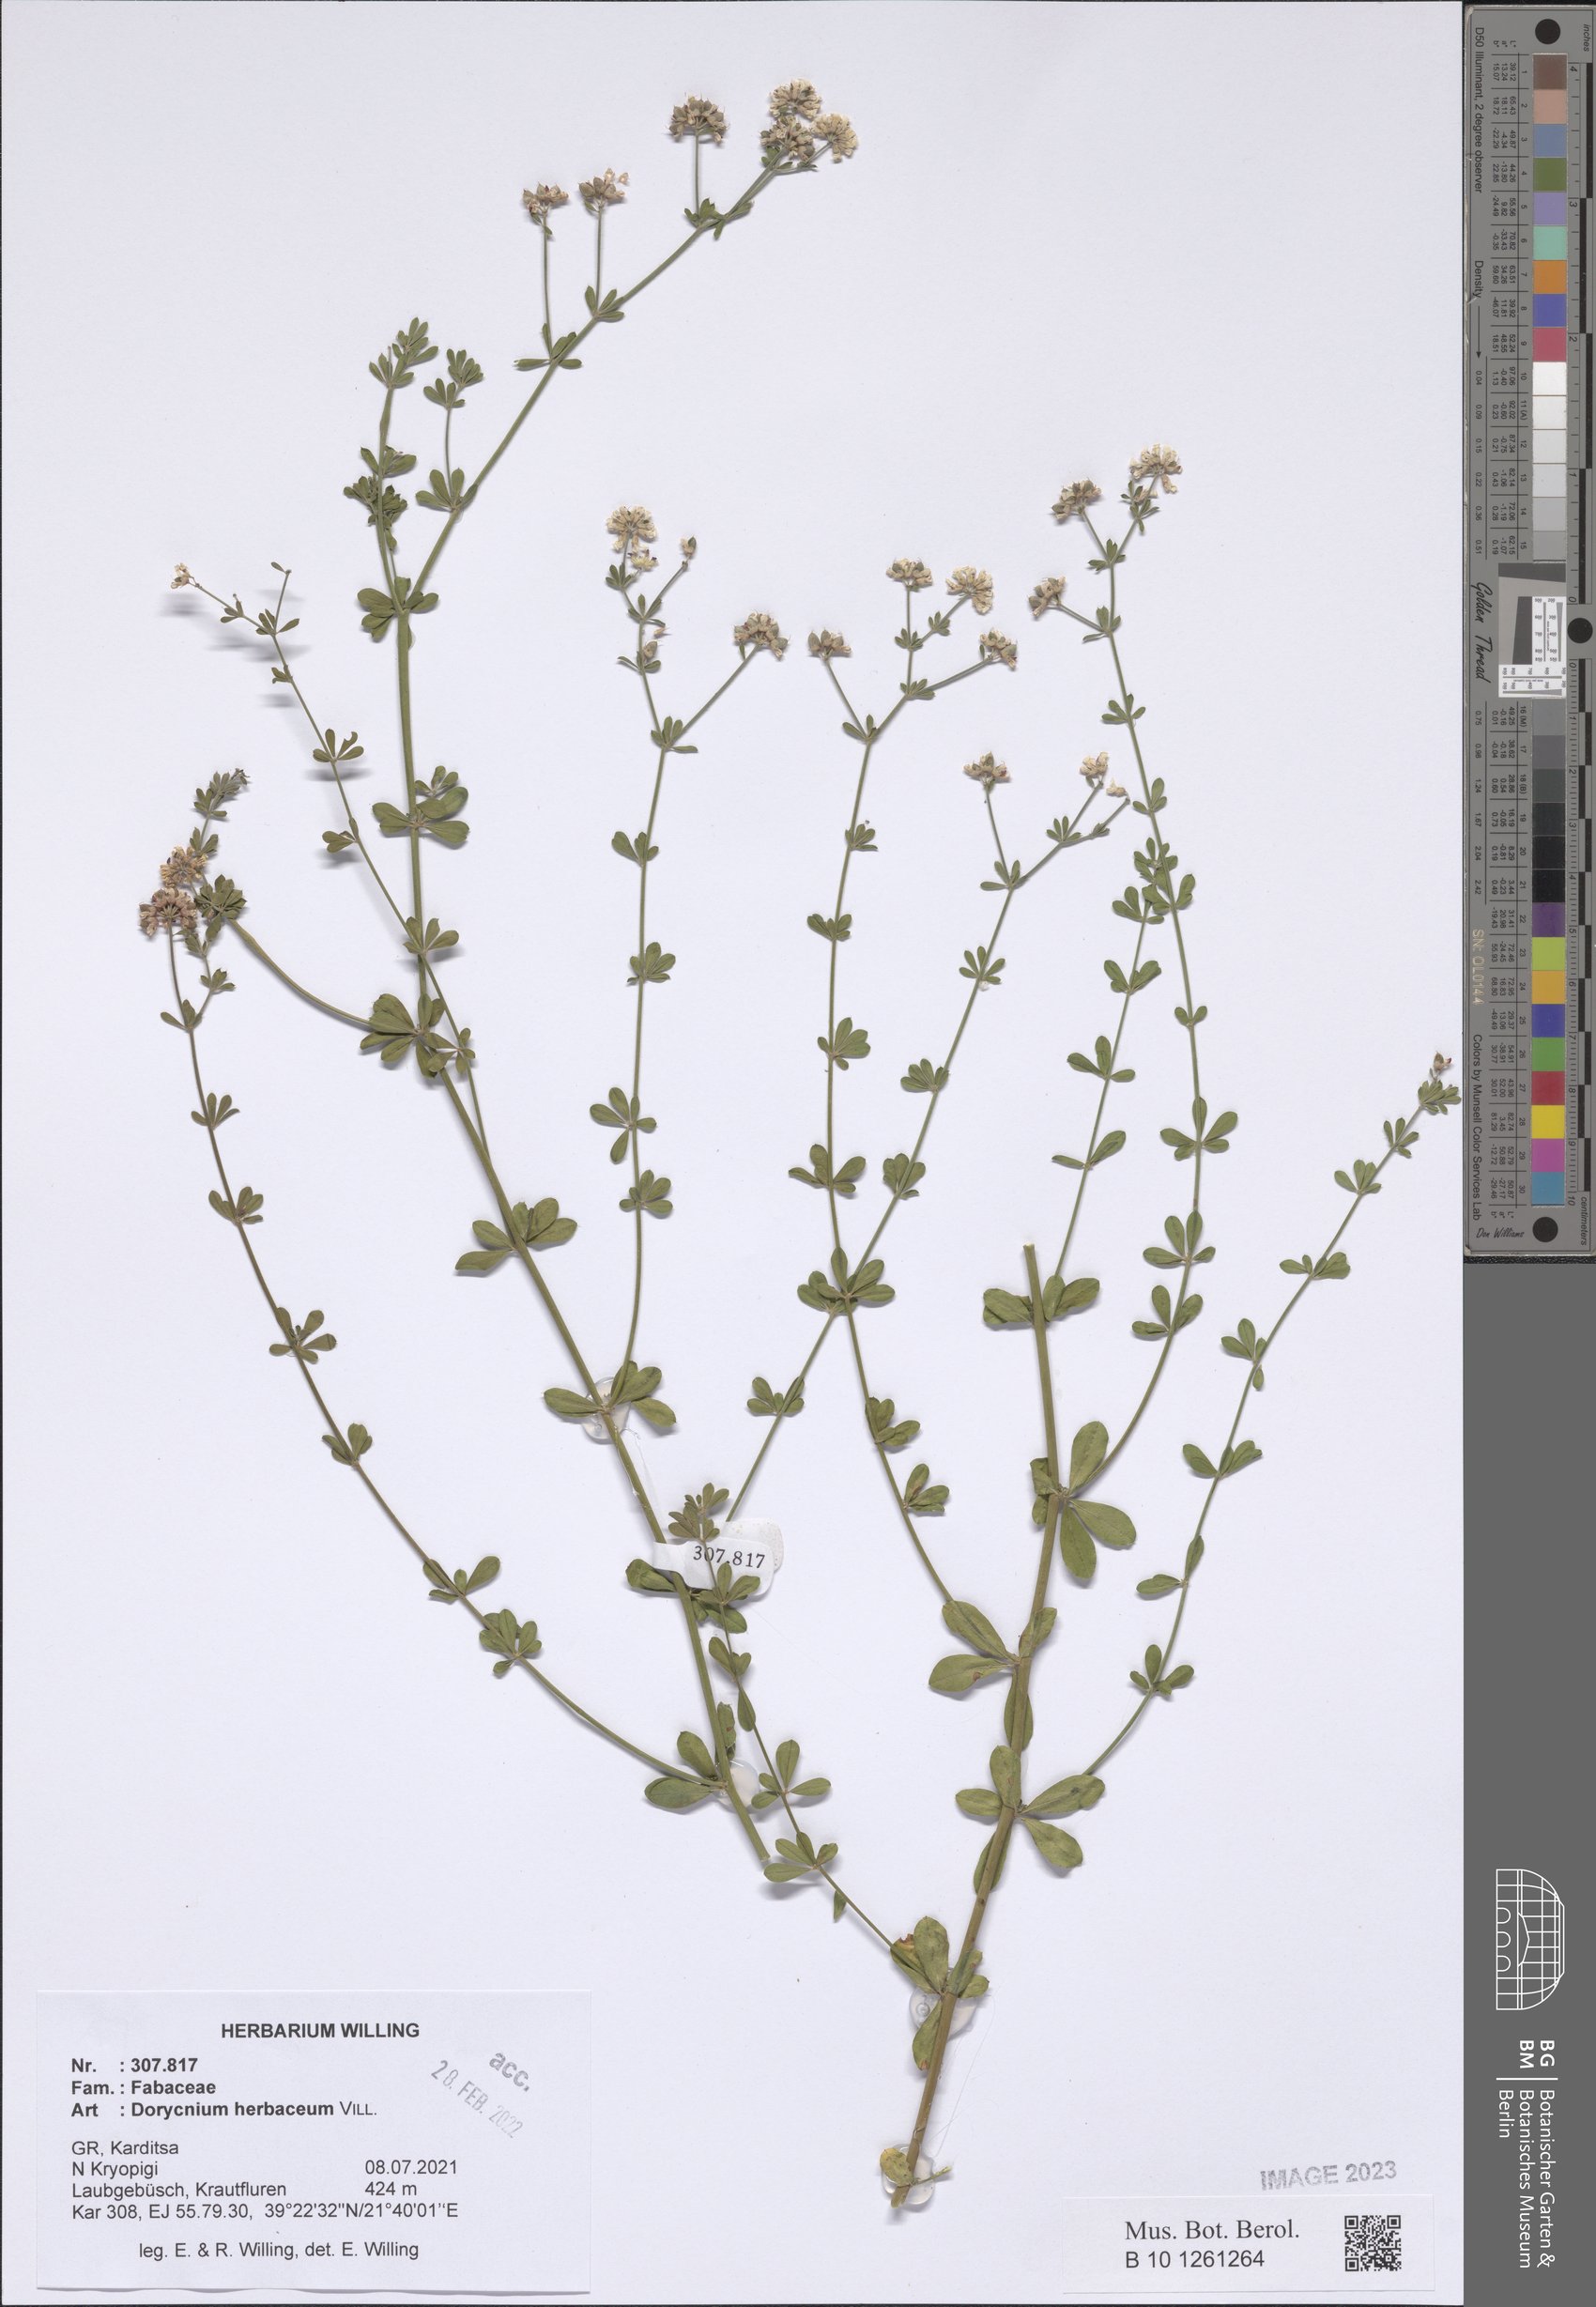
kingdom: Plantae
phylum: Tracheophyta
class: Magnoliopsida
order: Fabales
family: Fabaceae
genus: Lotus
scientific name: Lotus herbaceus
